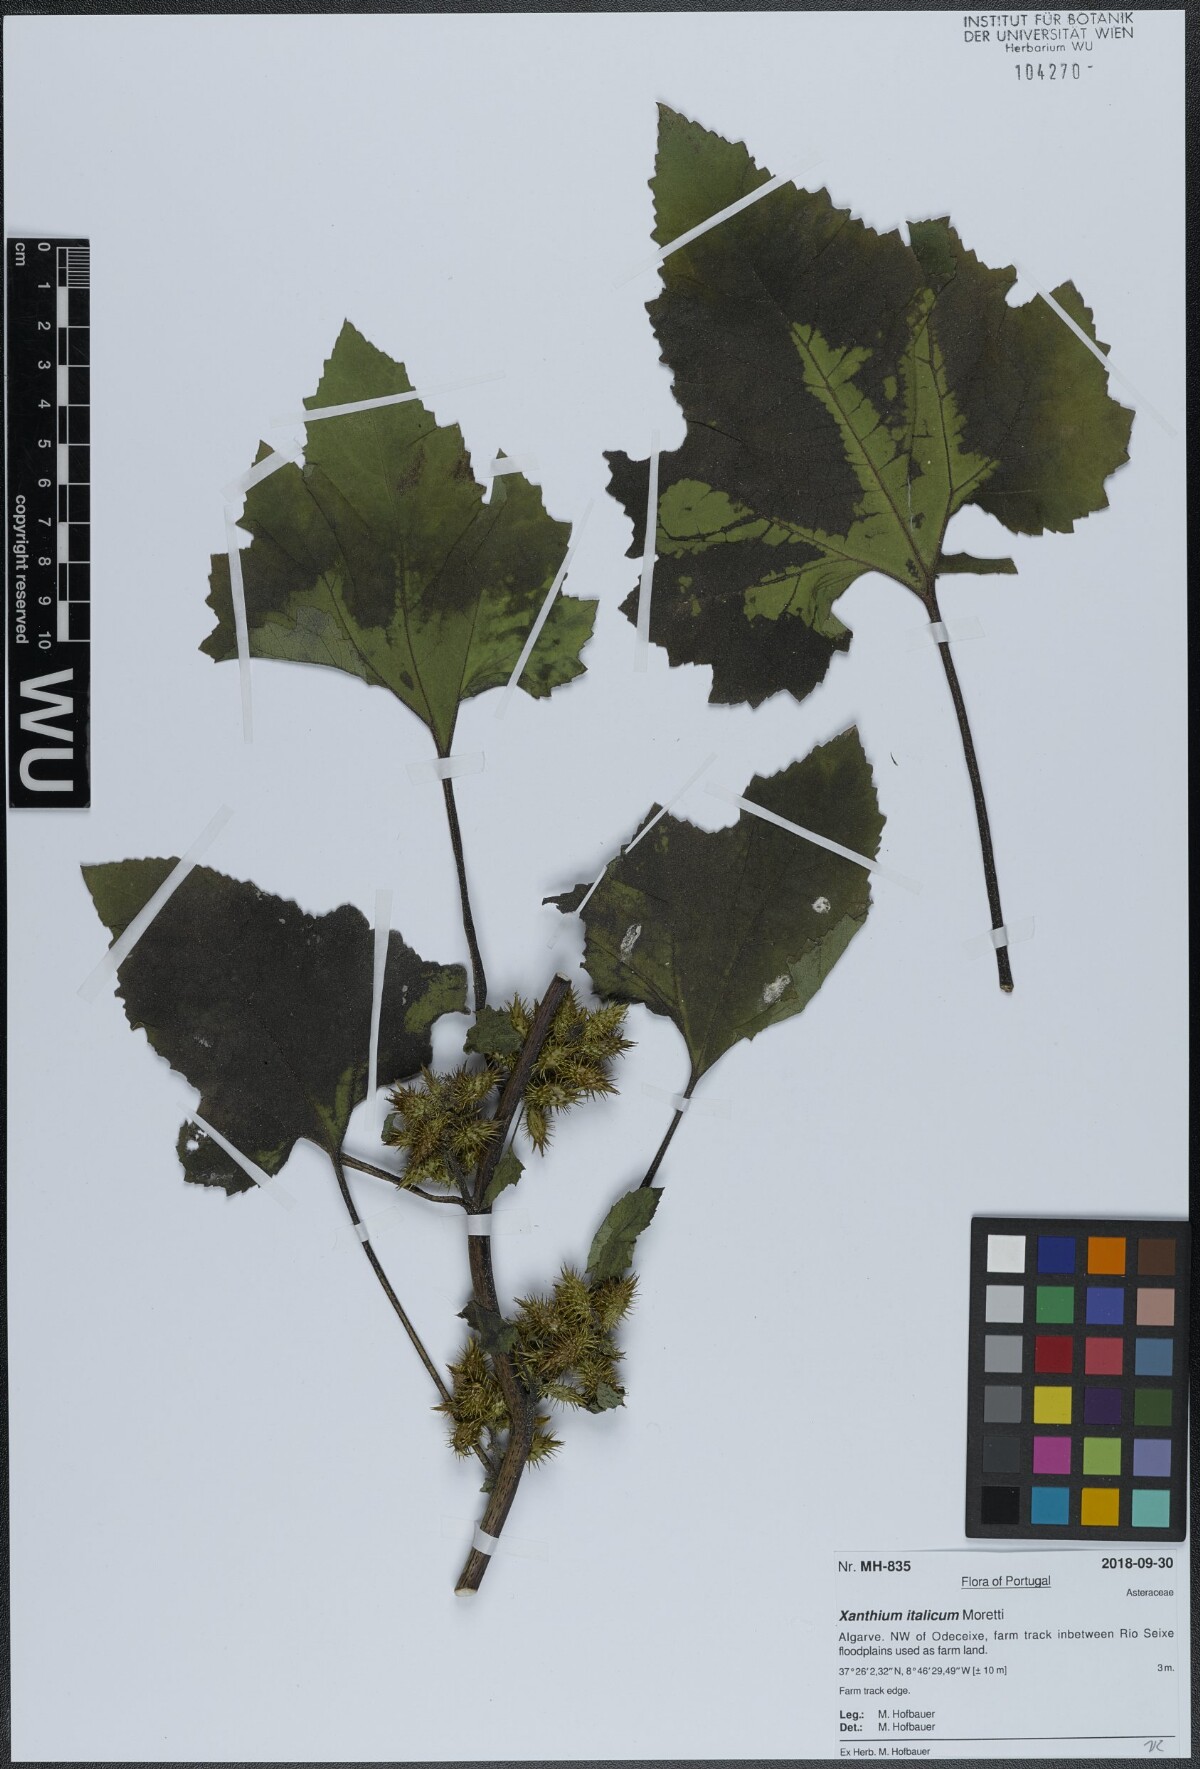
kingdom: Plantae
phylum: Tracheophyta
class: Magnoliopsida
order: Asterales
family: Asteraceae
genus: Xanthium
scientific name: Xanthium orientale
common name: Californian burr
